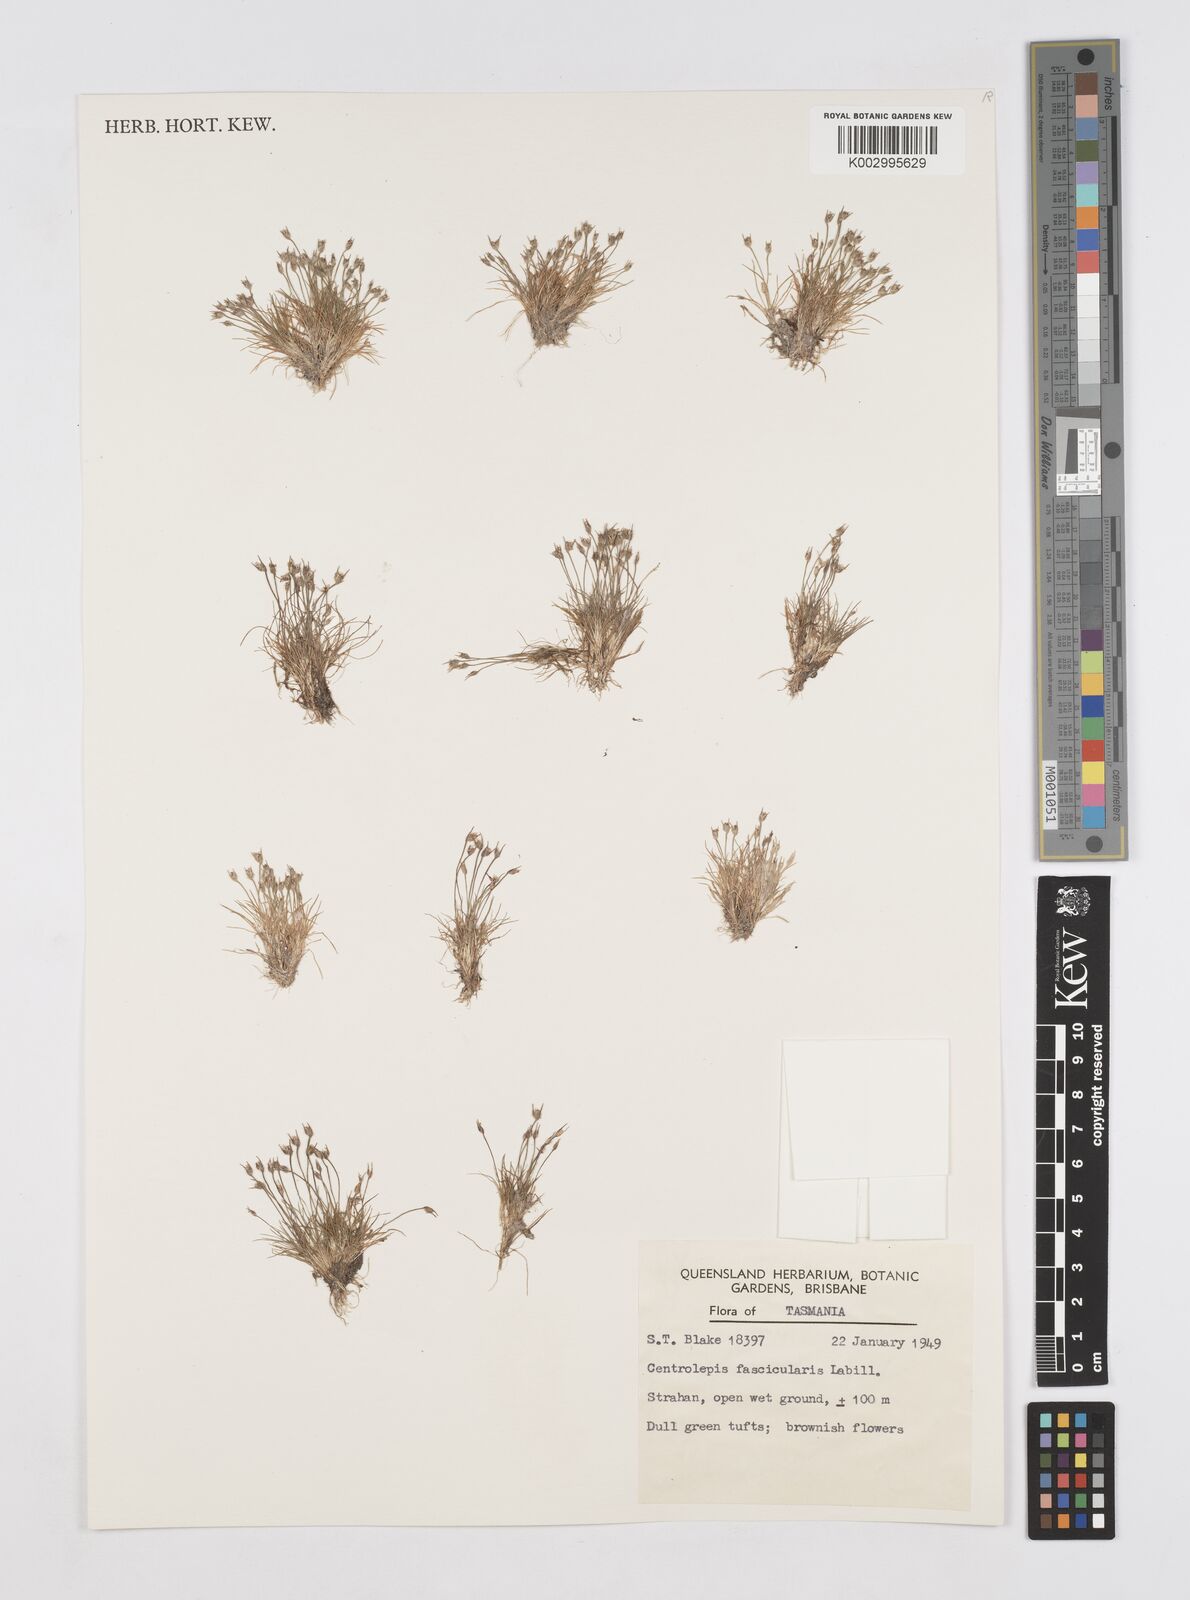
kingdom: Plantae
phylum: Tracheophyta
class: Liliopsida
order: Poales
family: Restionaceae
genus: Centrolepis
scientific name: Centrolepis fascicularis
